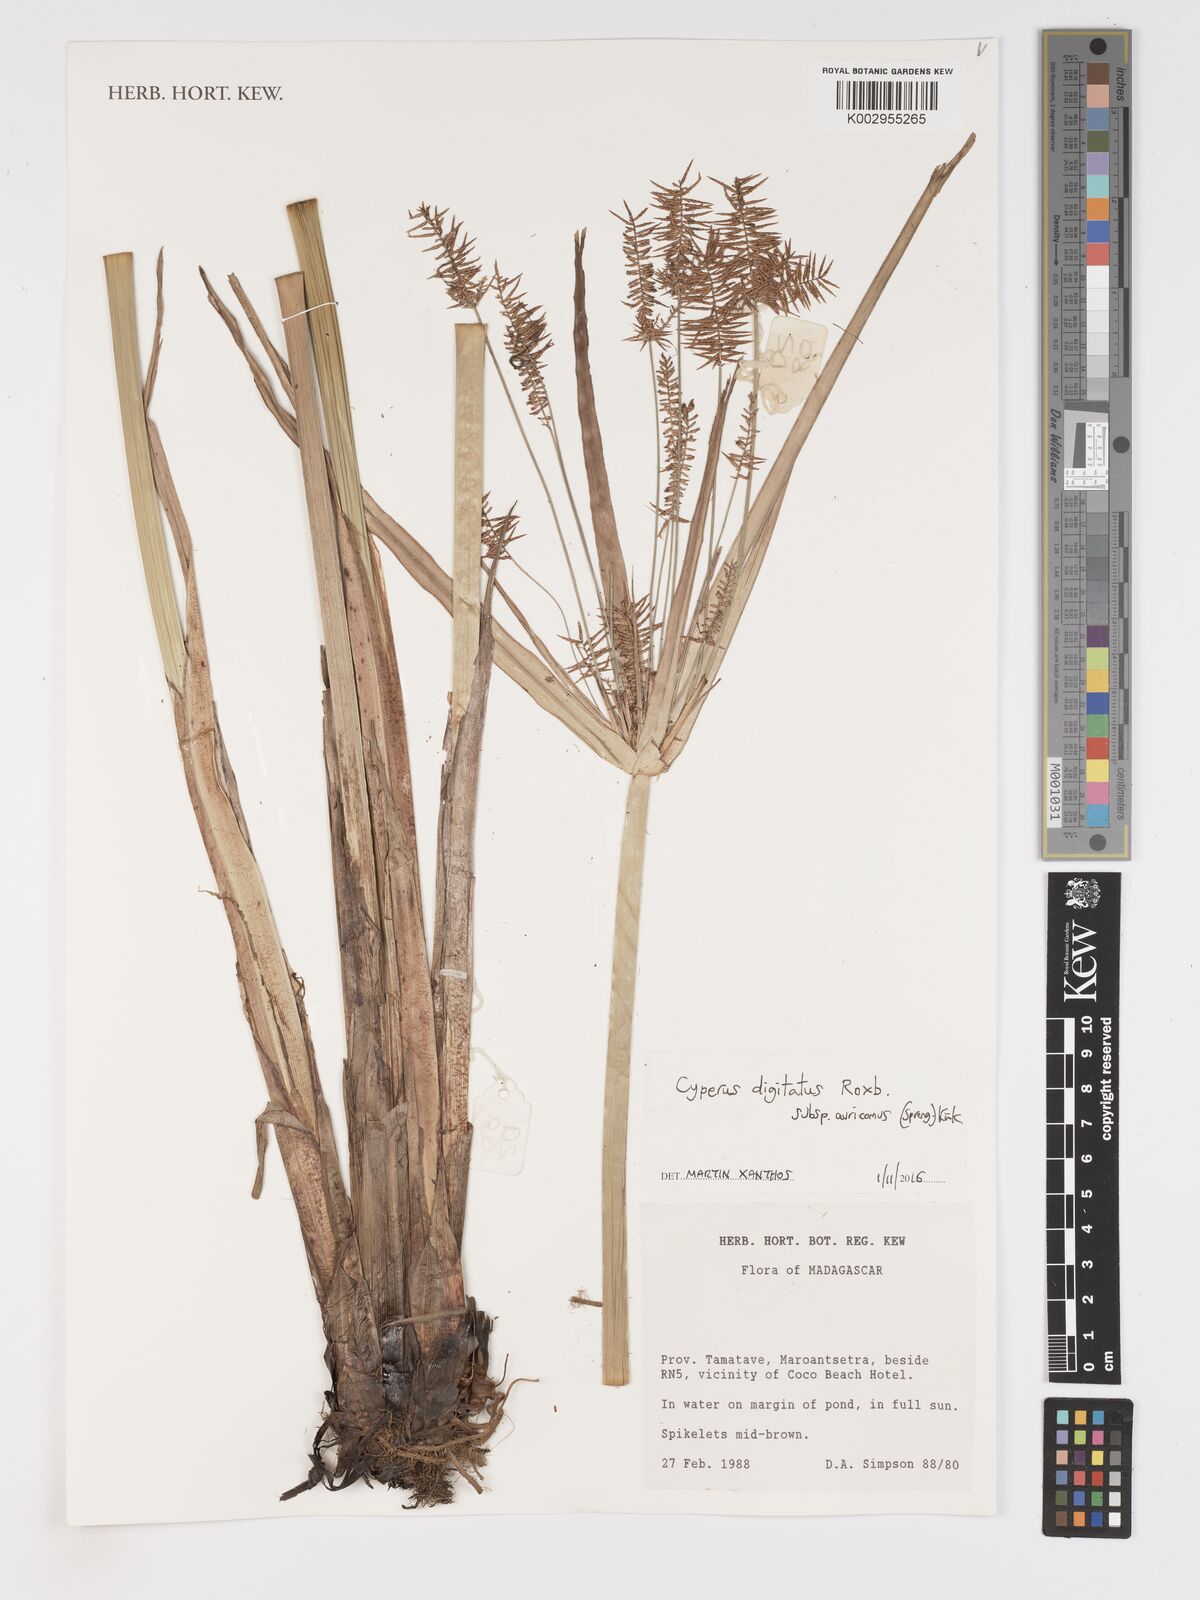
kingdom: Plantae
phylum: Tracheophyta
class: Liliopsida
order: Poales
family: Cyperaceae
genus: Cyperus
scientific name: Cyperus digitatus
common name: Finger flatsedge
